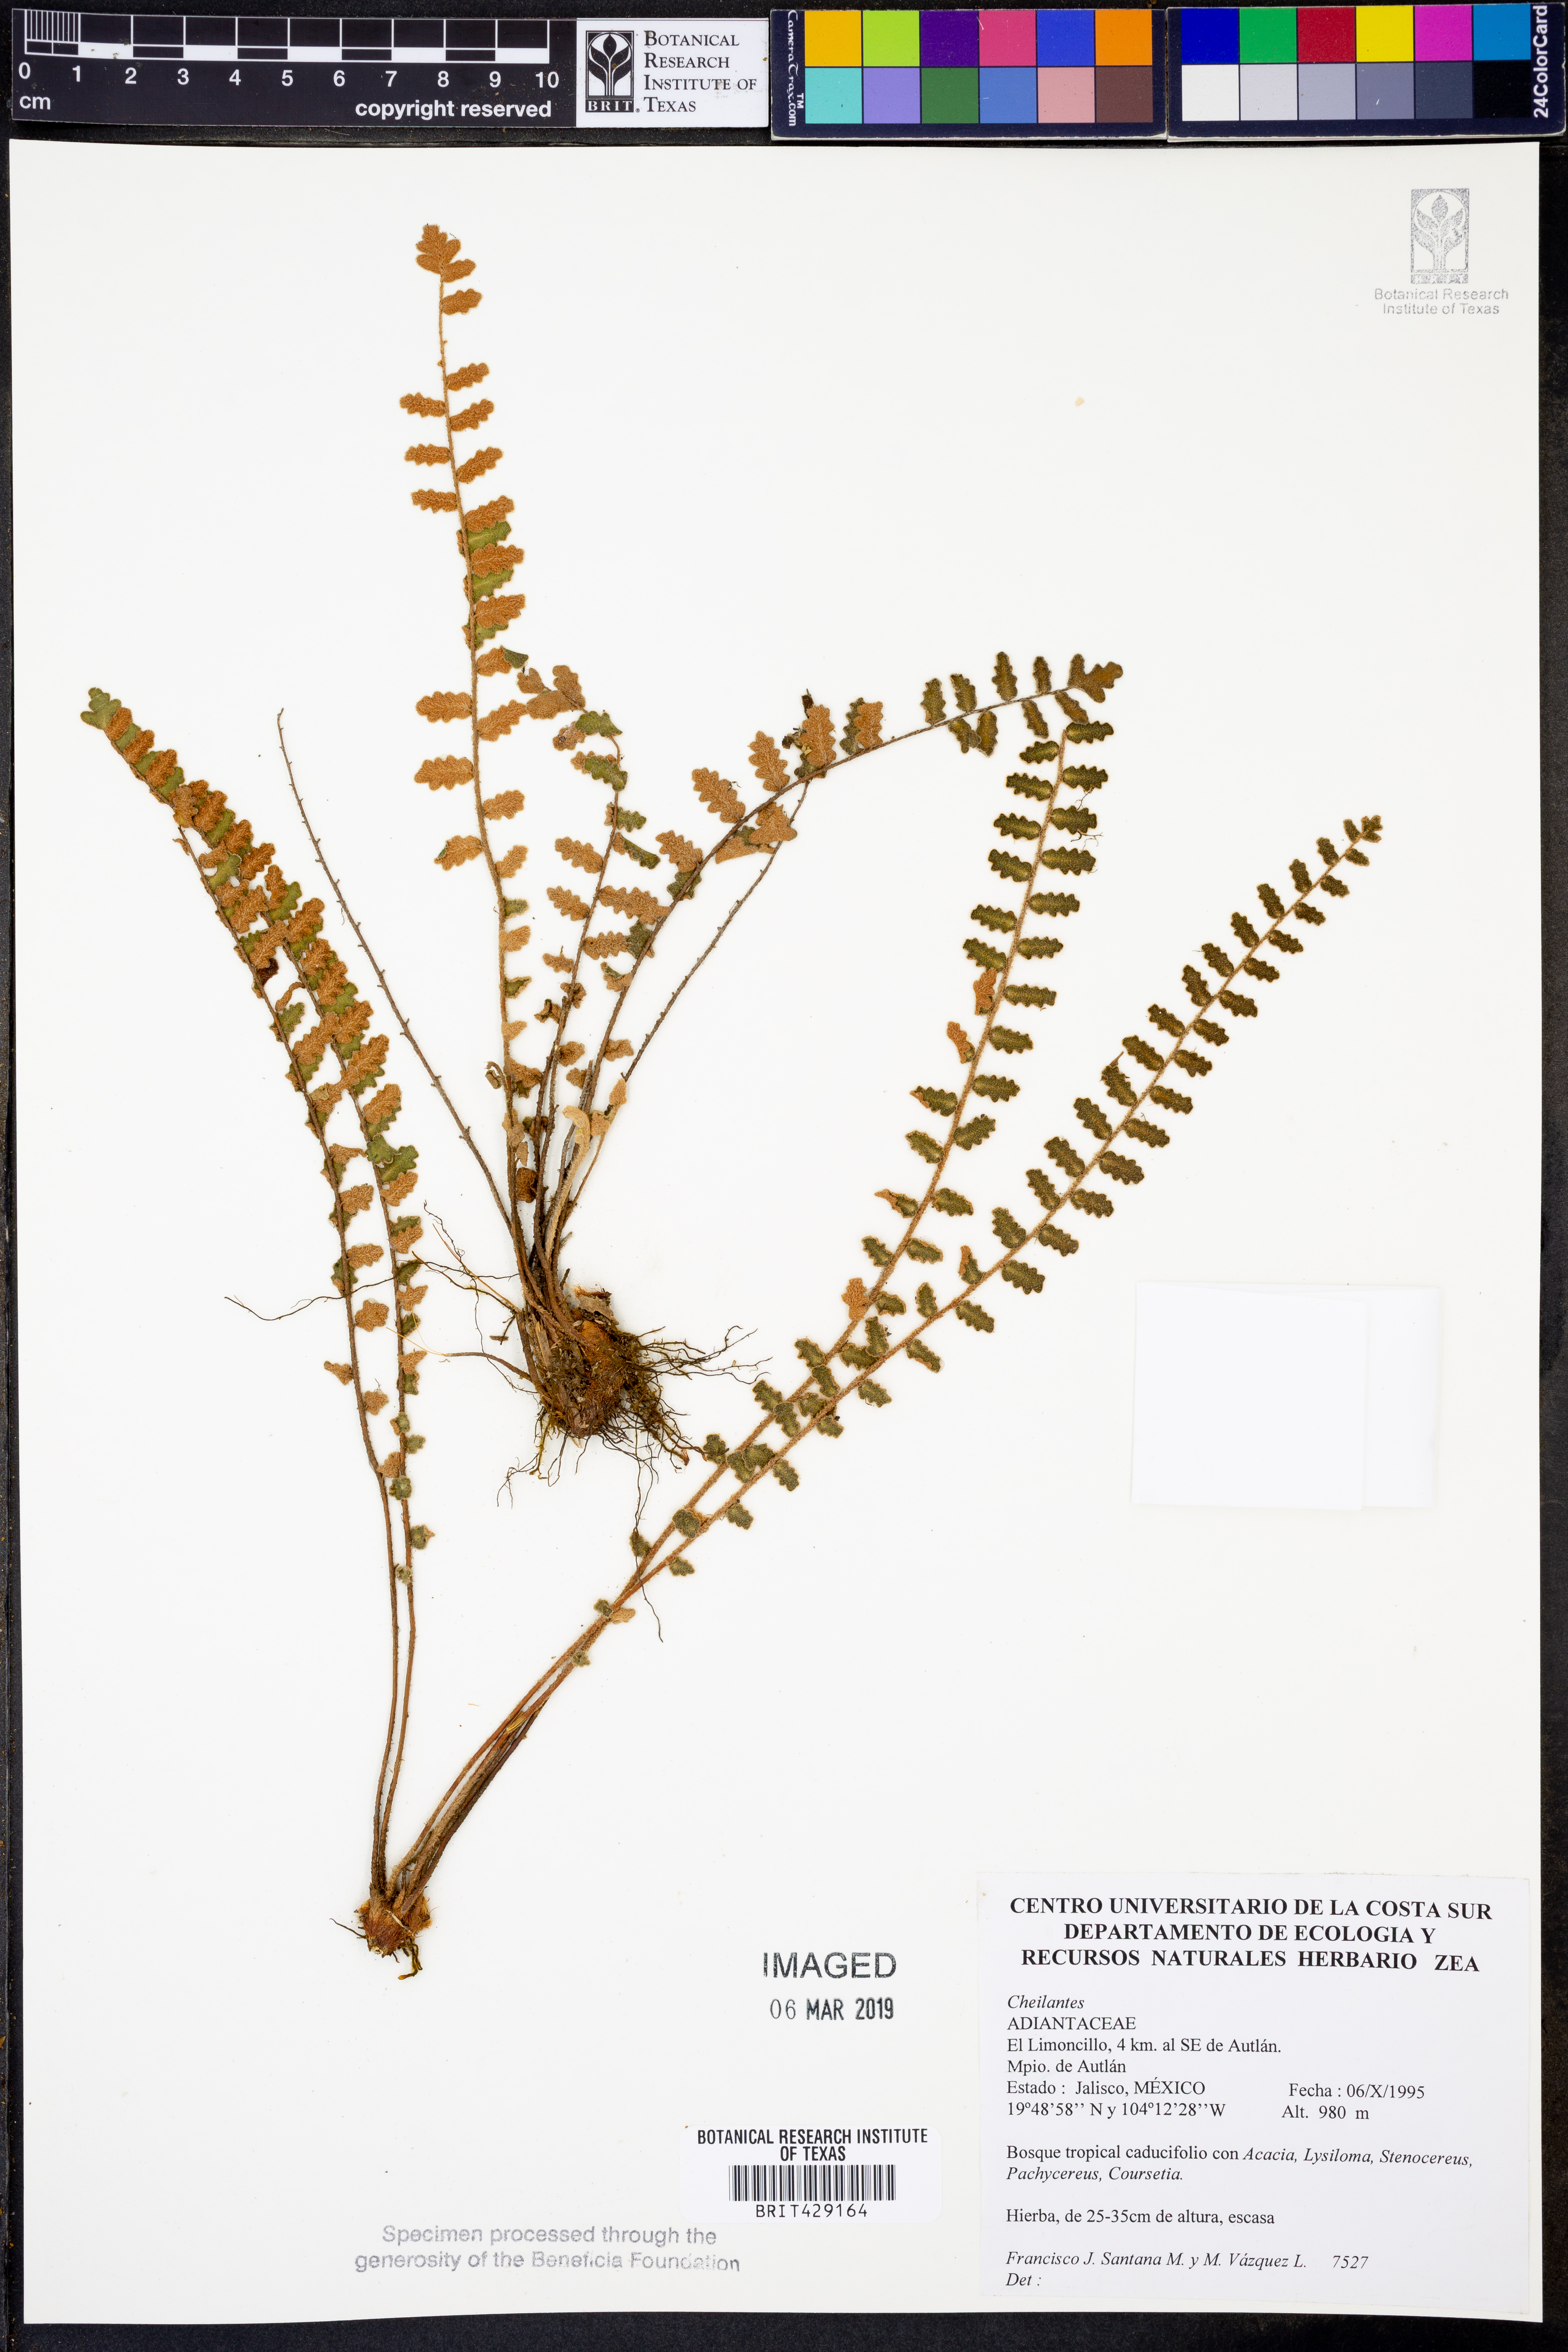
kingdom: Plantae
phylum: Tracheophyta
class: Polypodiopsida
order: Polypodiales
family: Pteridaceae
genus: Cheilanthes
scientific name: Cheilanthes
